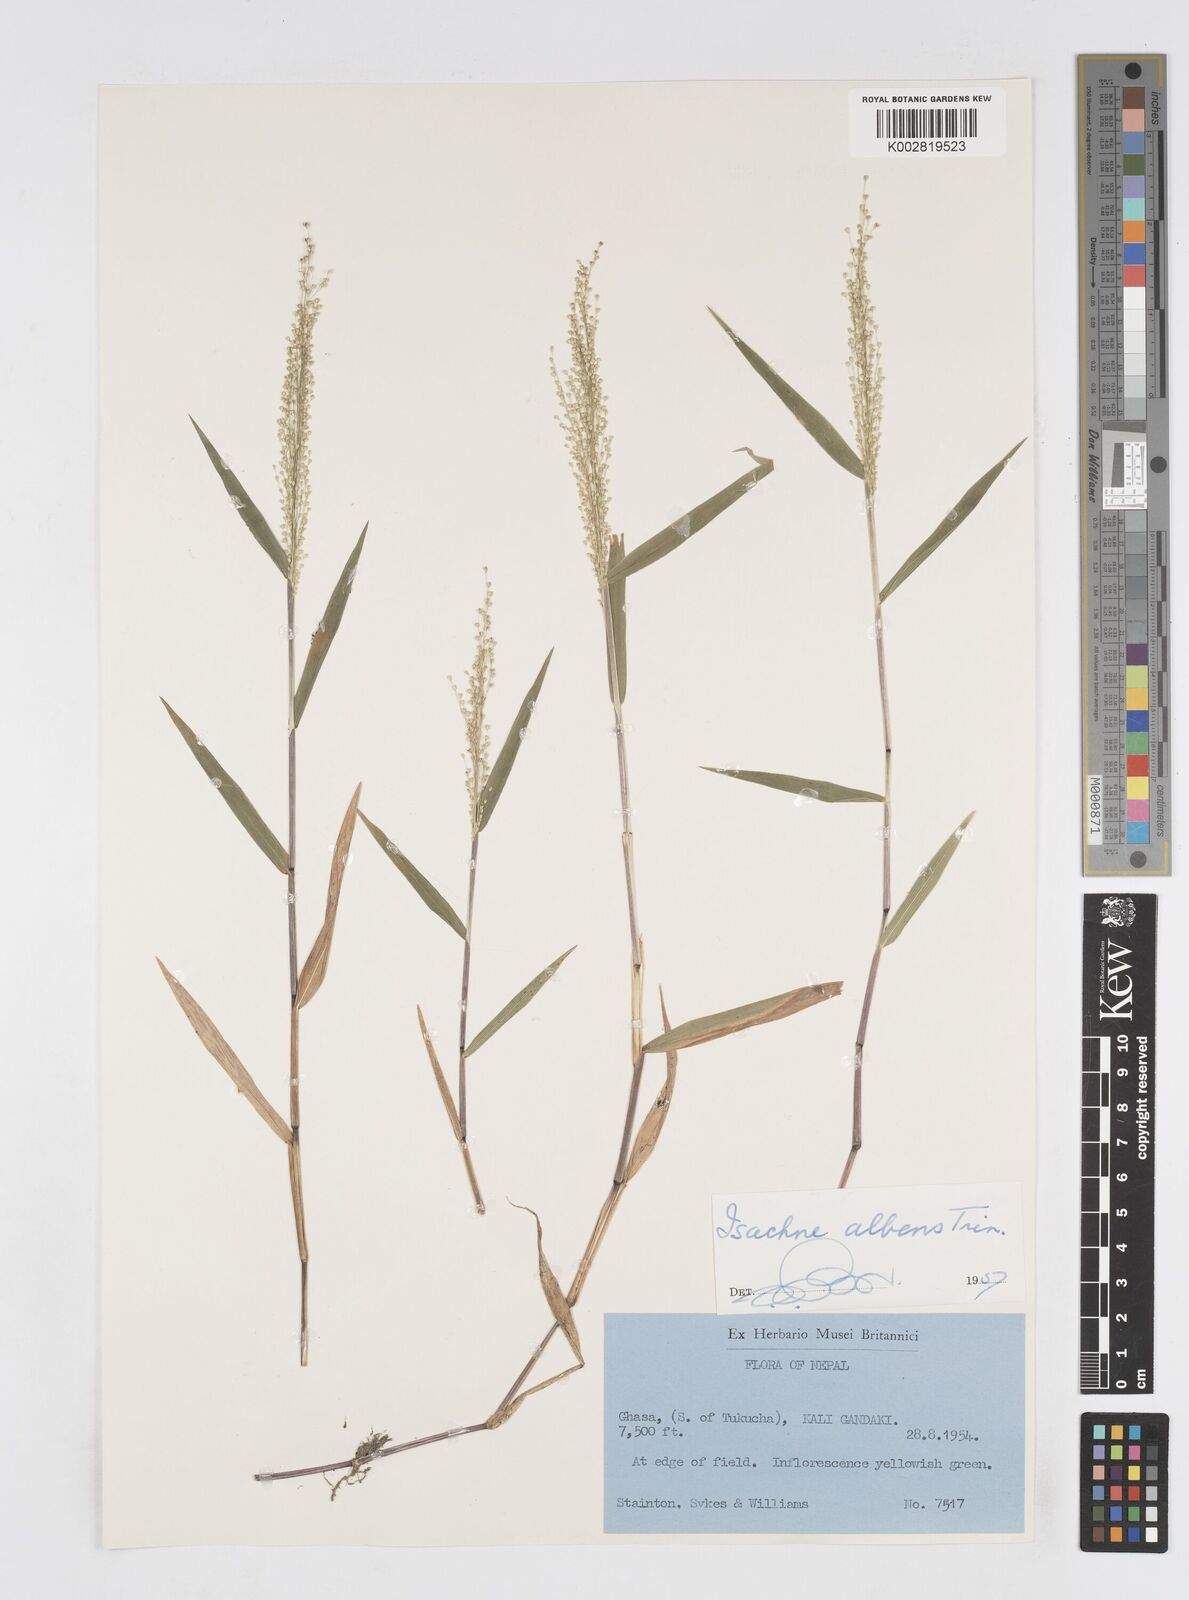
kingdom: Plantae
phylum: Tracheophyta
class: Liliopsida
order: Poales
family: Poaceae
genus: Isachne
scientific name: Isachne albens
